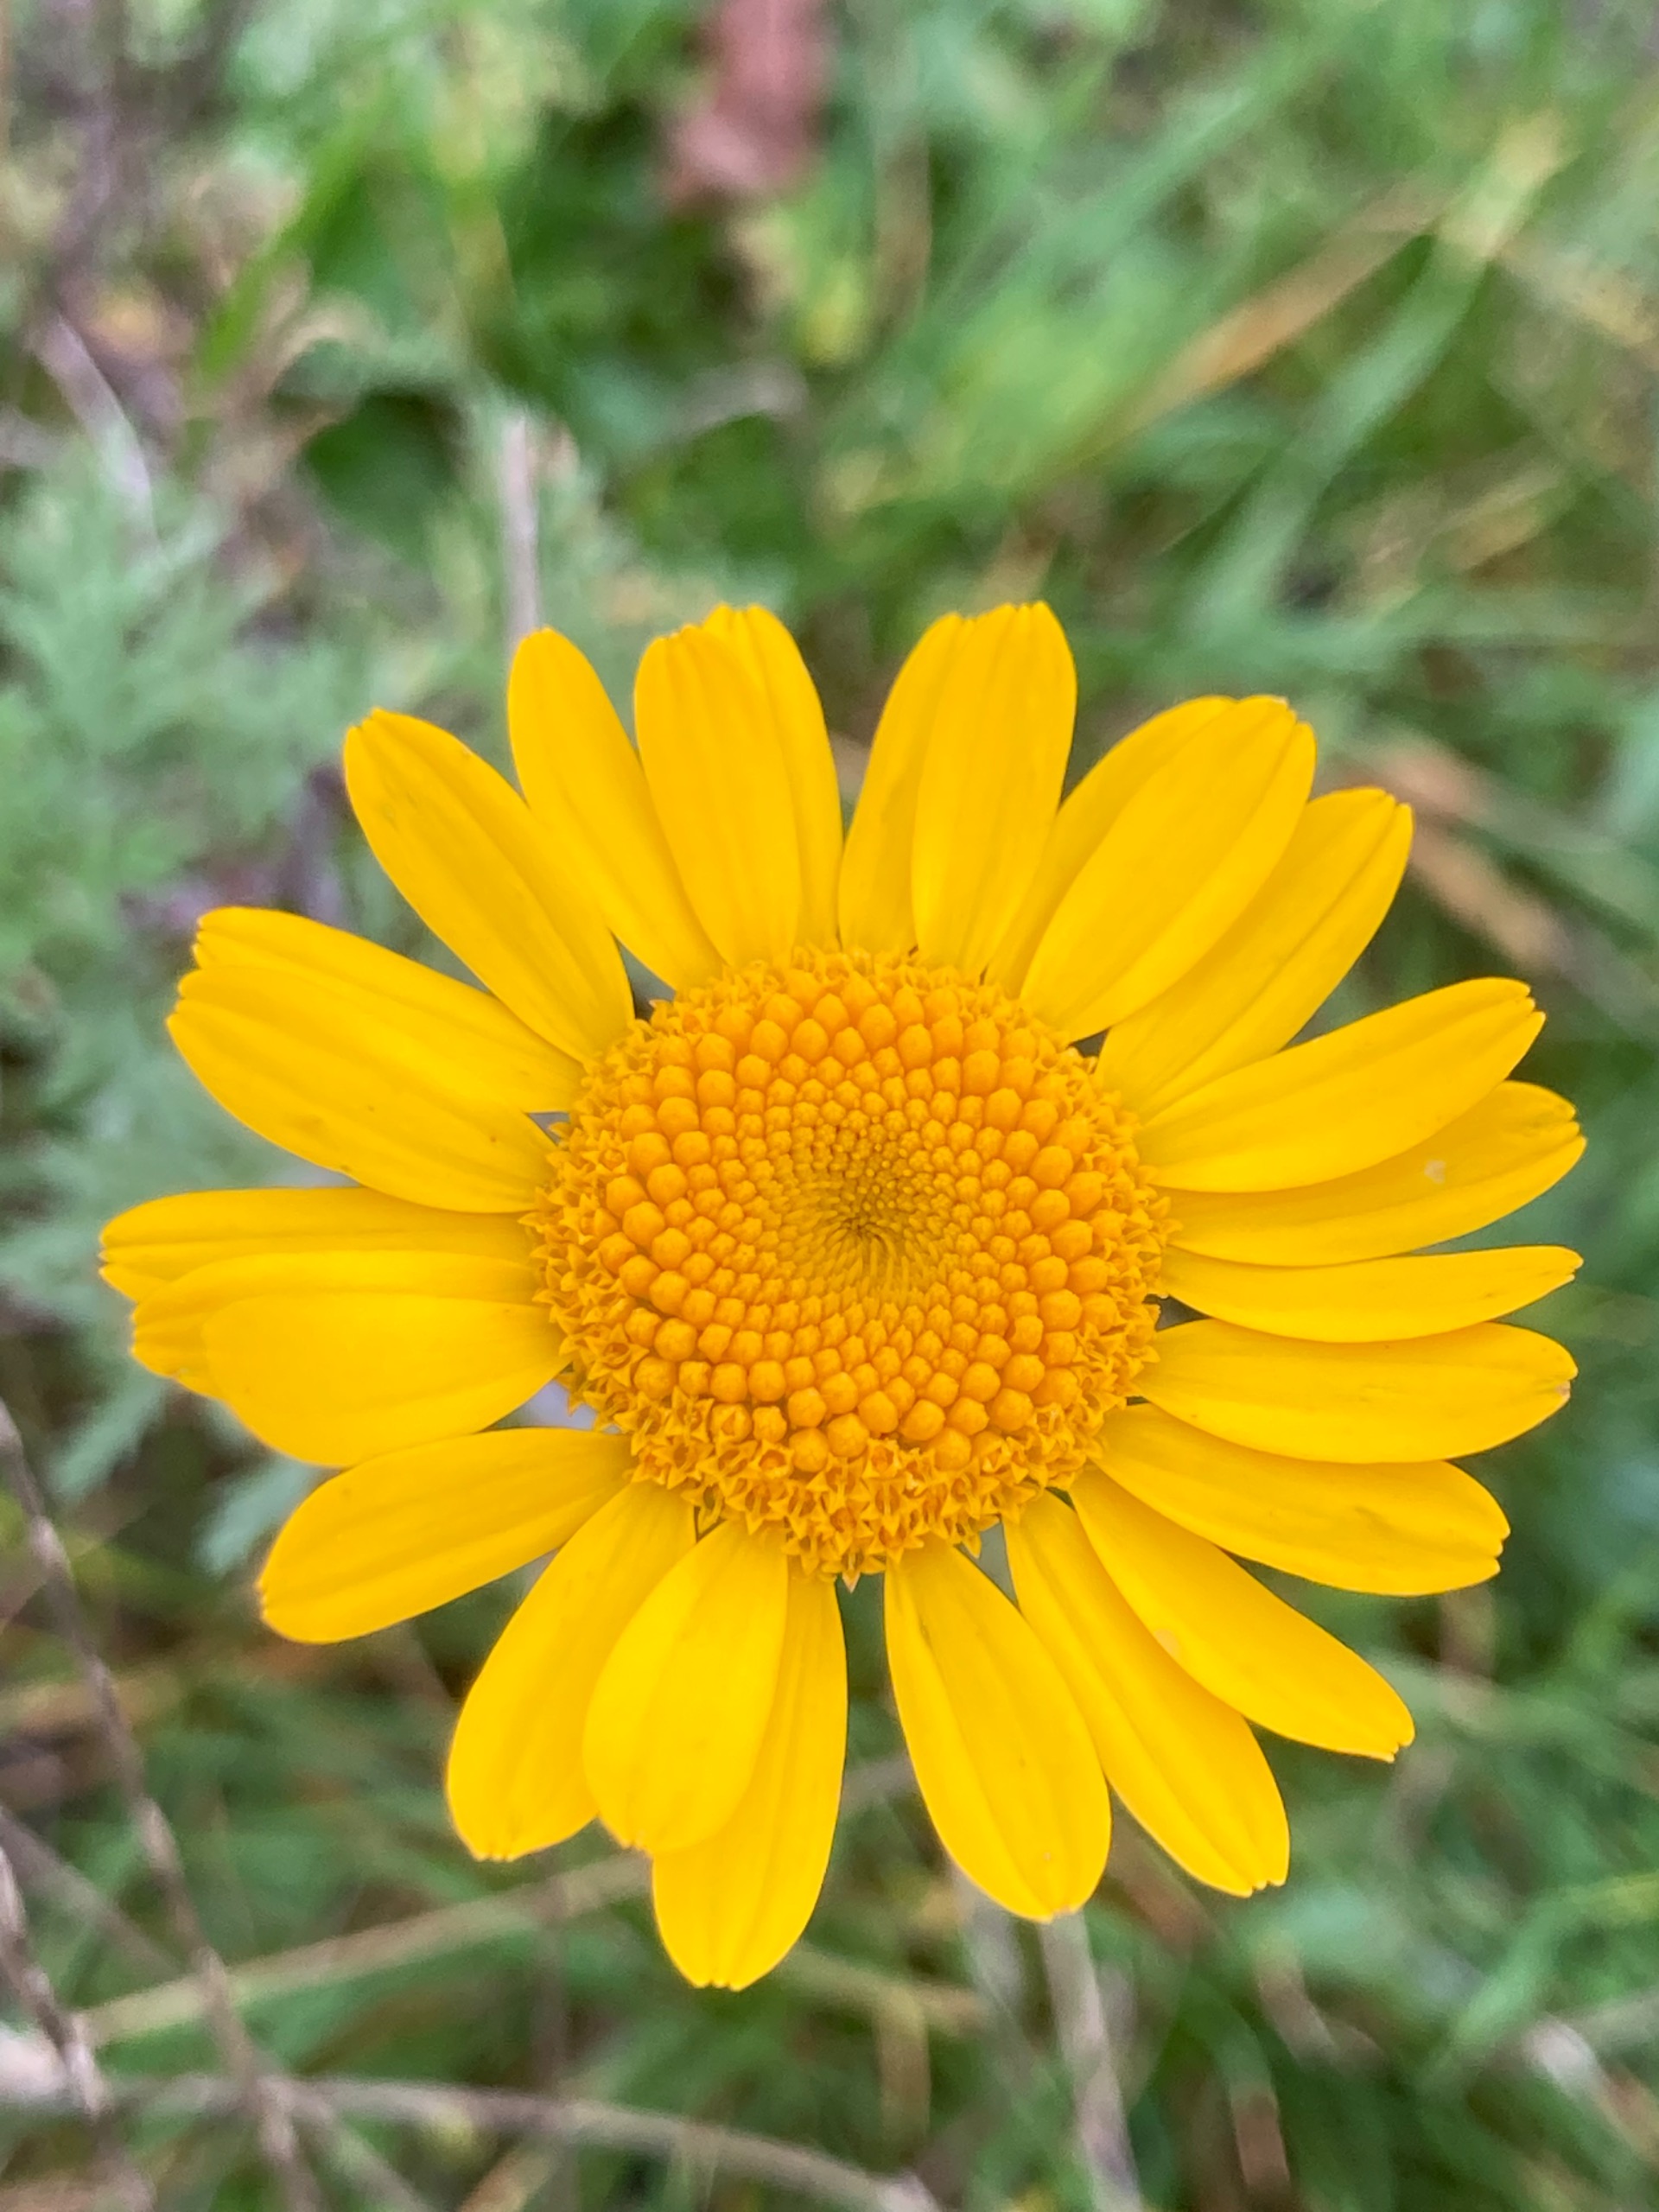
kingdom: Plantae
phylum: Tracheophyta
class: Magnoliopsida
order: Asterales
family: Asteraceae
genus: Cota
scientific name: Cota tinctoria
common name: Farve-gåseurt
